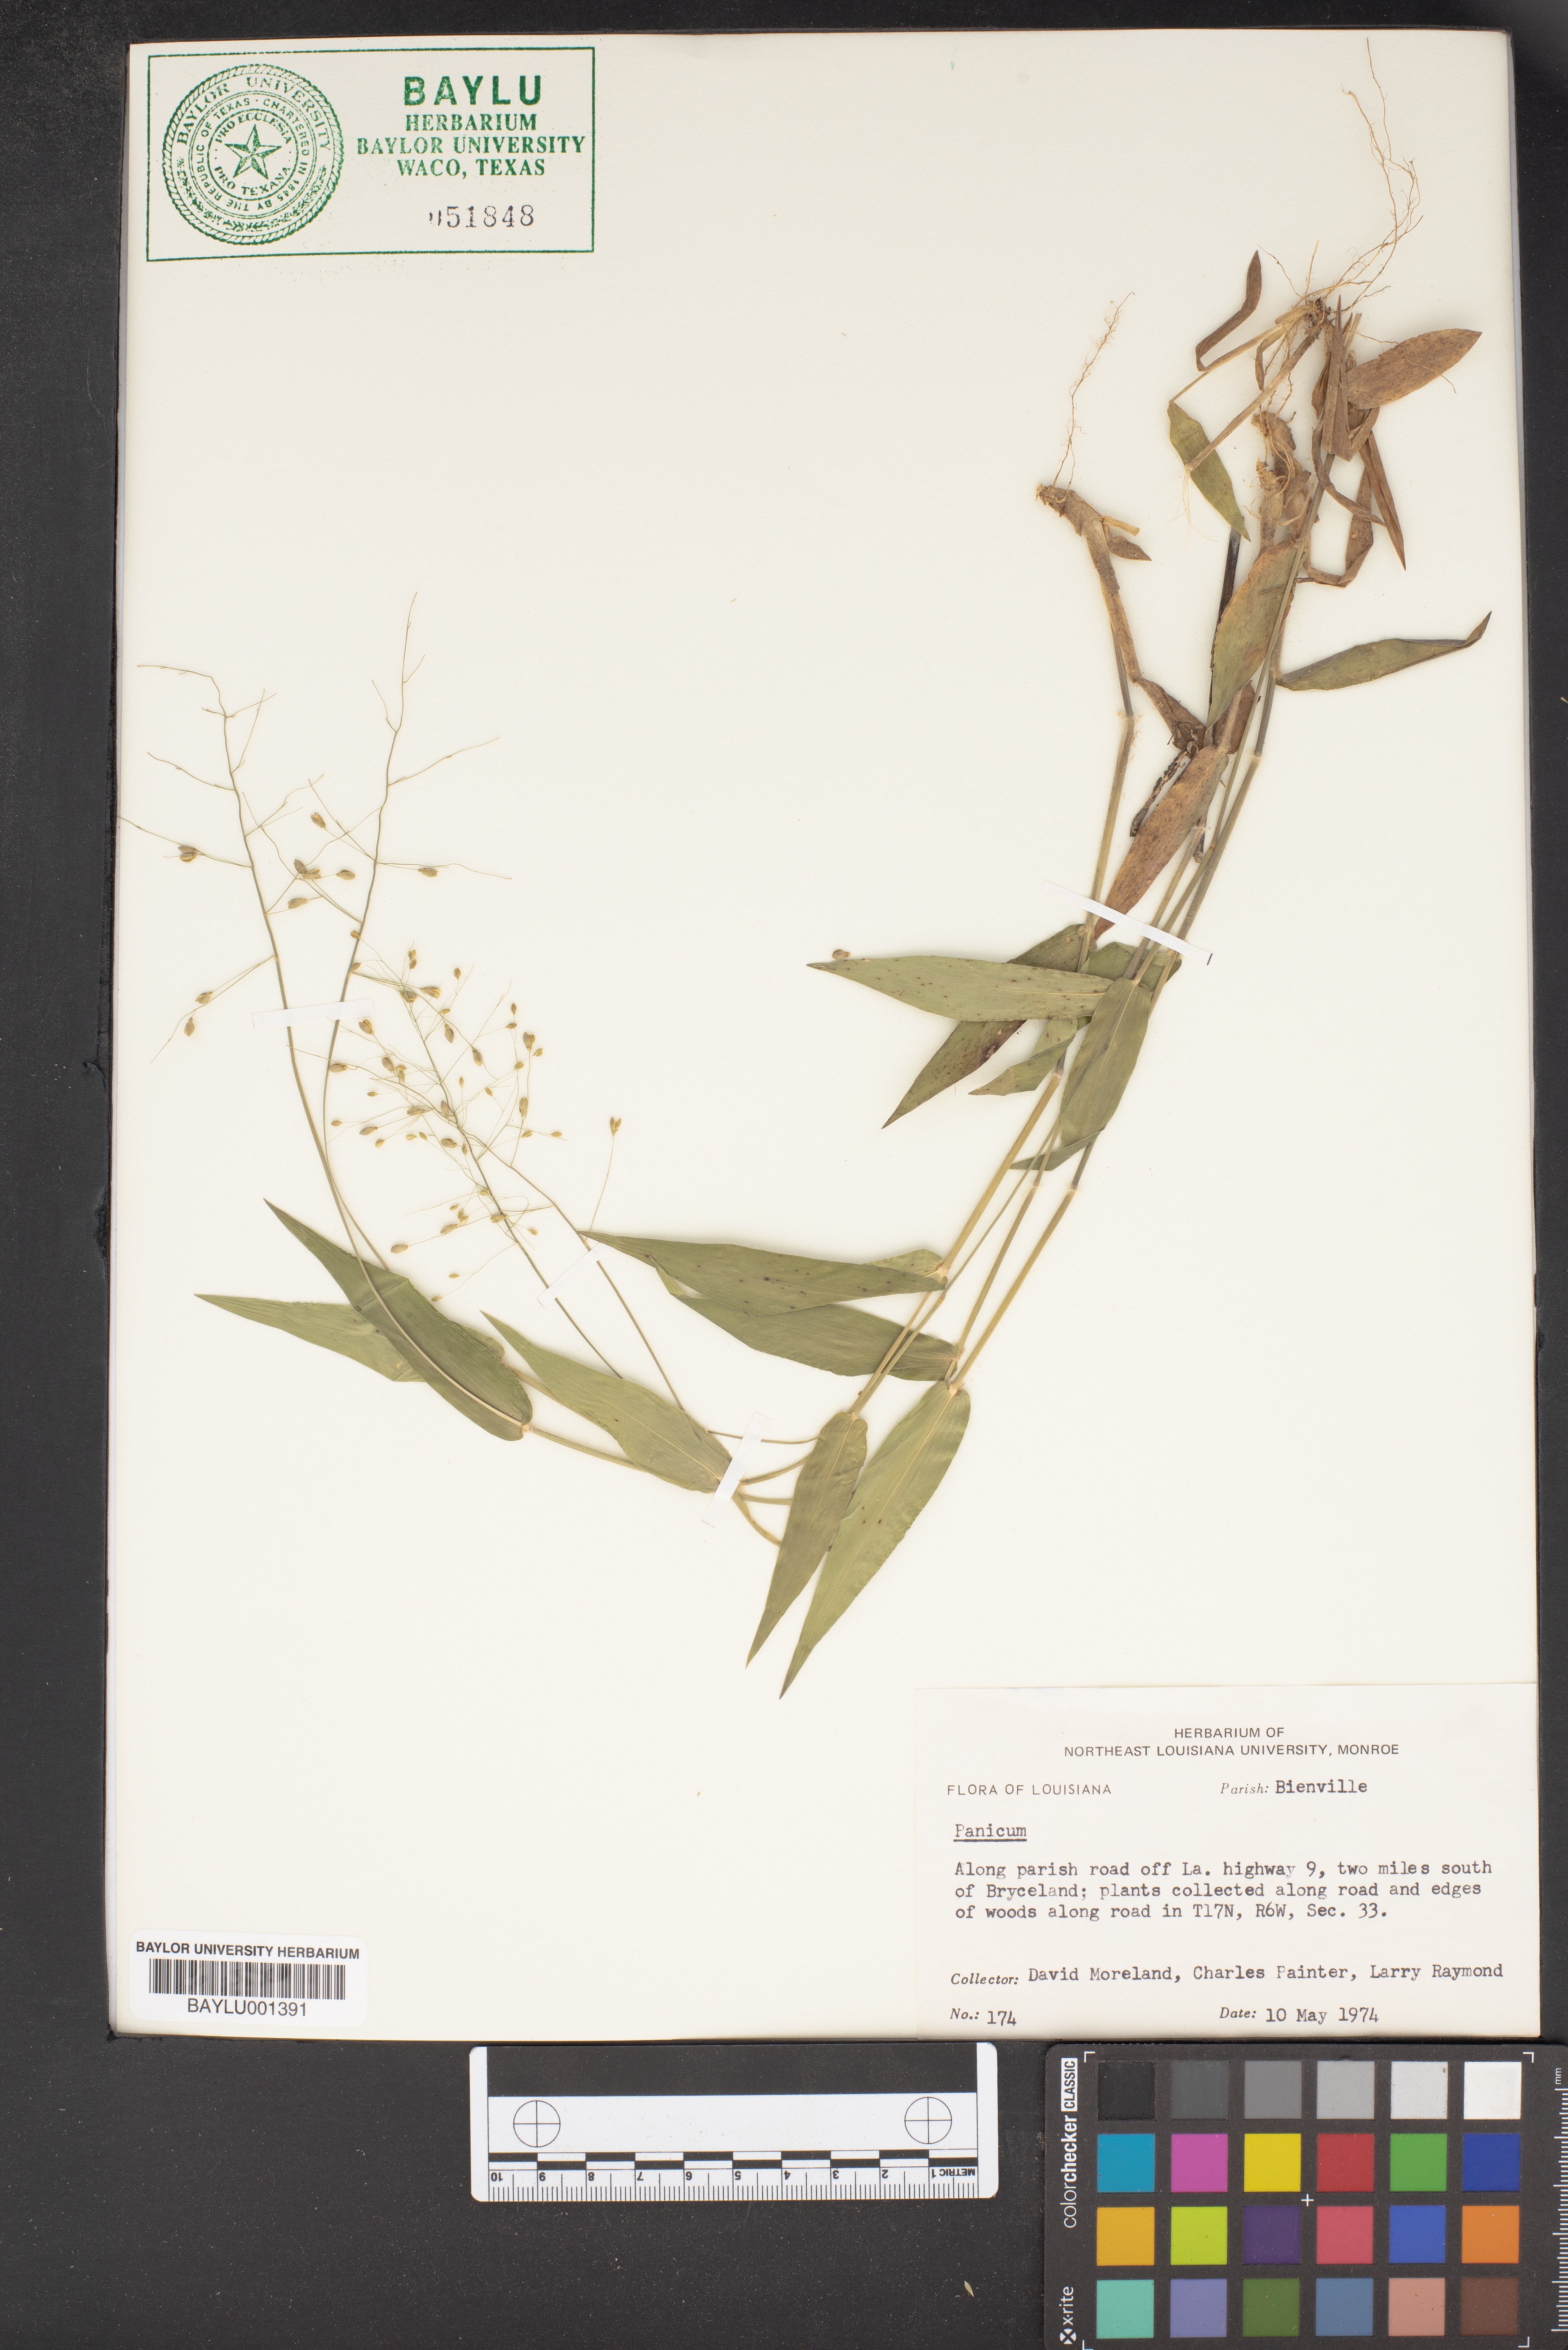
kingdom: Plantae
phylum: Tracheophyta
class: Liliopsida
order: Poales
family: Poaceae
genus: Panicum
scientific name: Panicum
